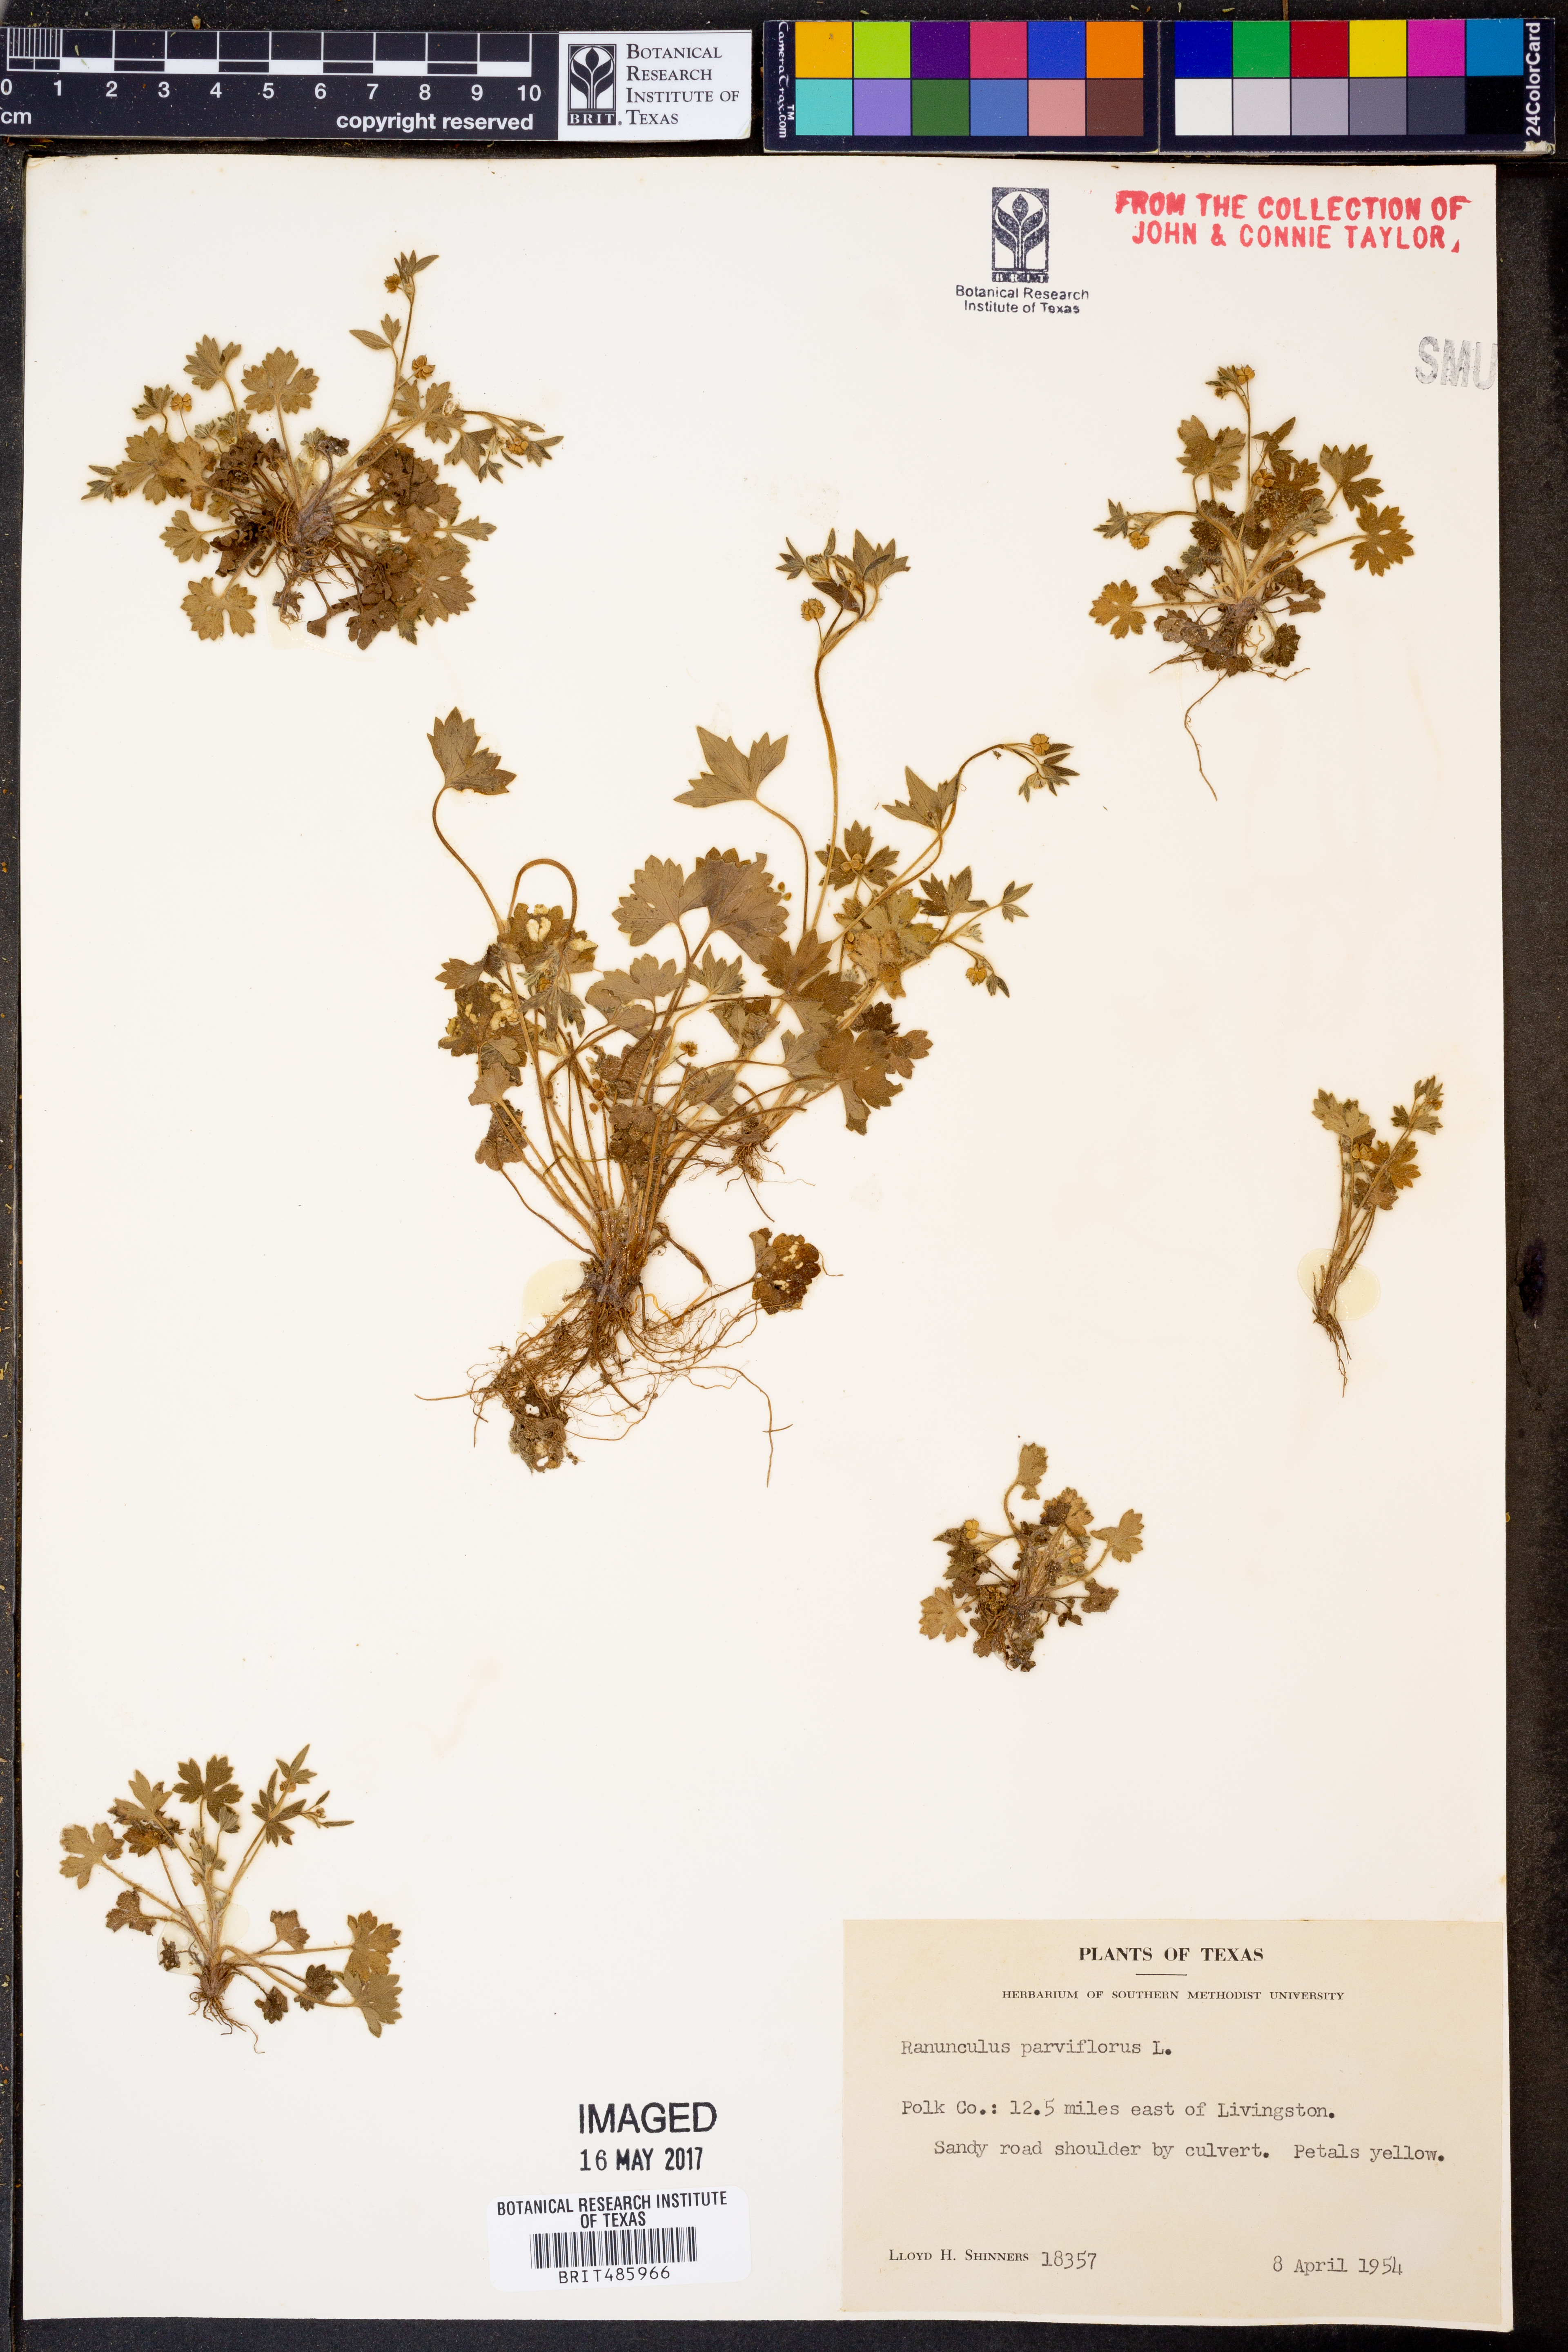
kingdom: Plantae
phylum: Tracheophyta
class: Magnoliopsida
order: Ranunculales
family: Ranunculaceae
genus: Ranunculus
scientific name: Ranunculus parviflorus
